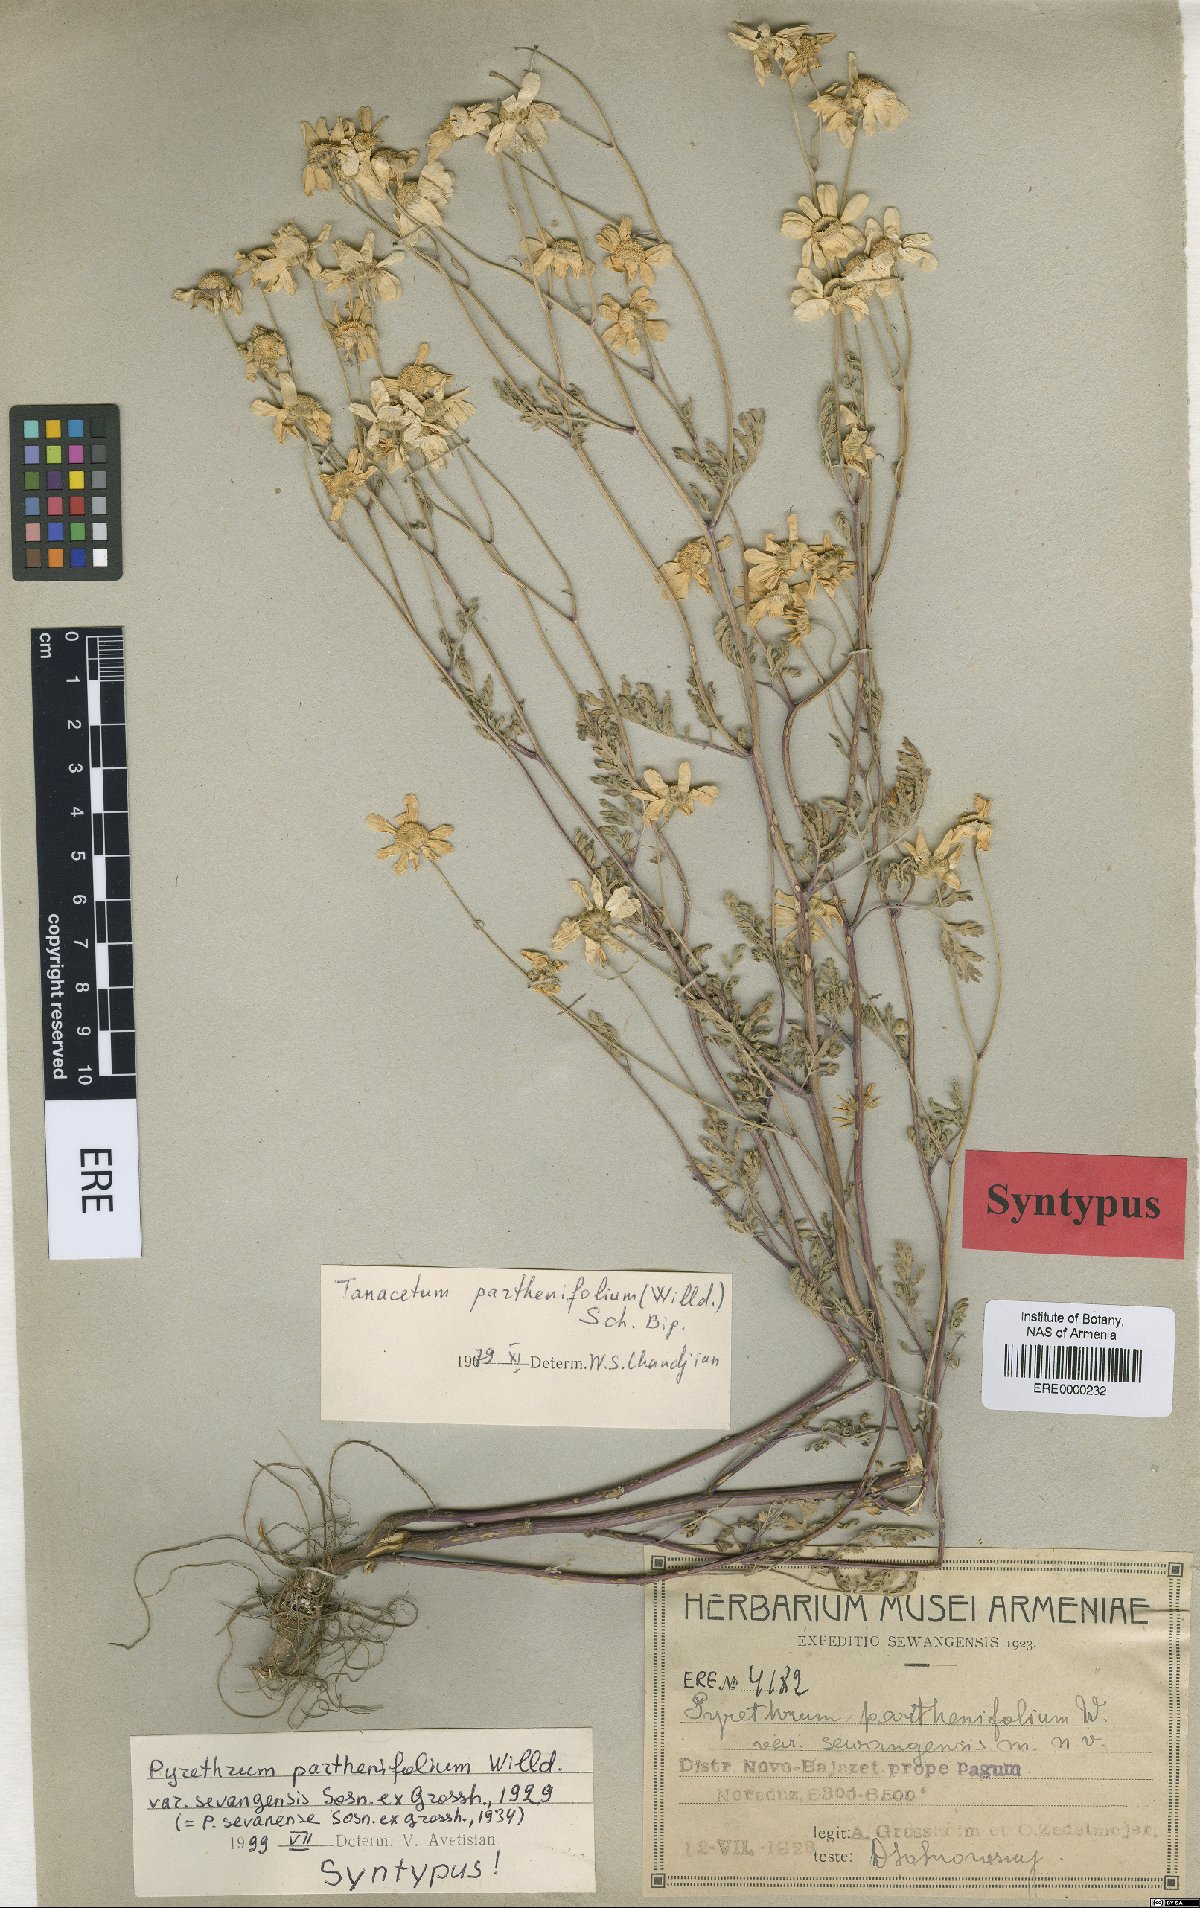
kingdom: Plantae
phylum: Tracheophyta
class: Magnoliopsida
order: Asterales
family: Asteraceae
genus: Tanacetum
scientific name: Tanacetum partheniifolium
